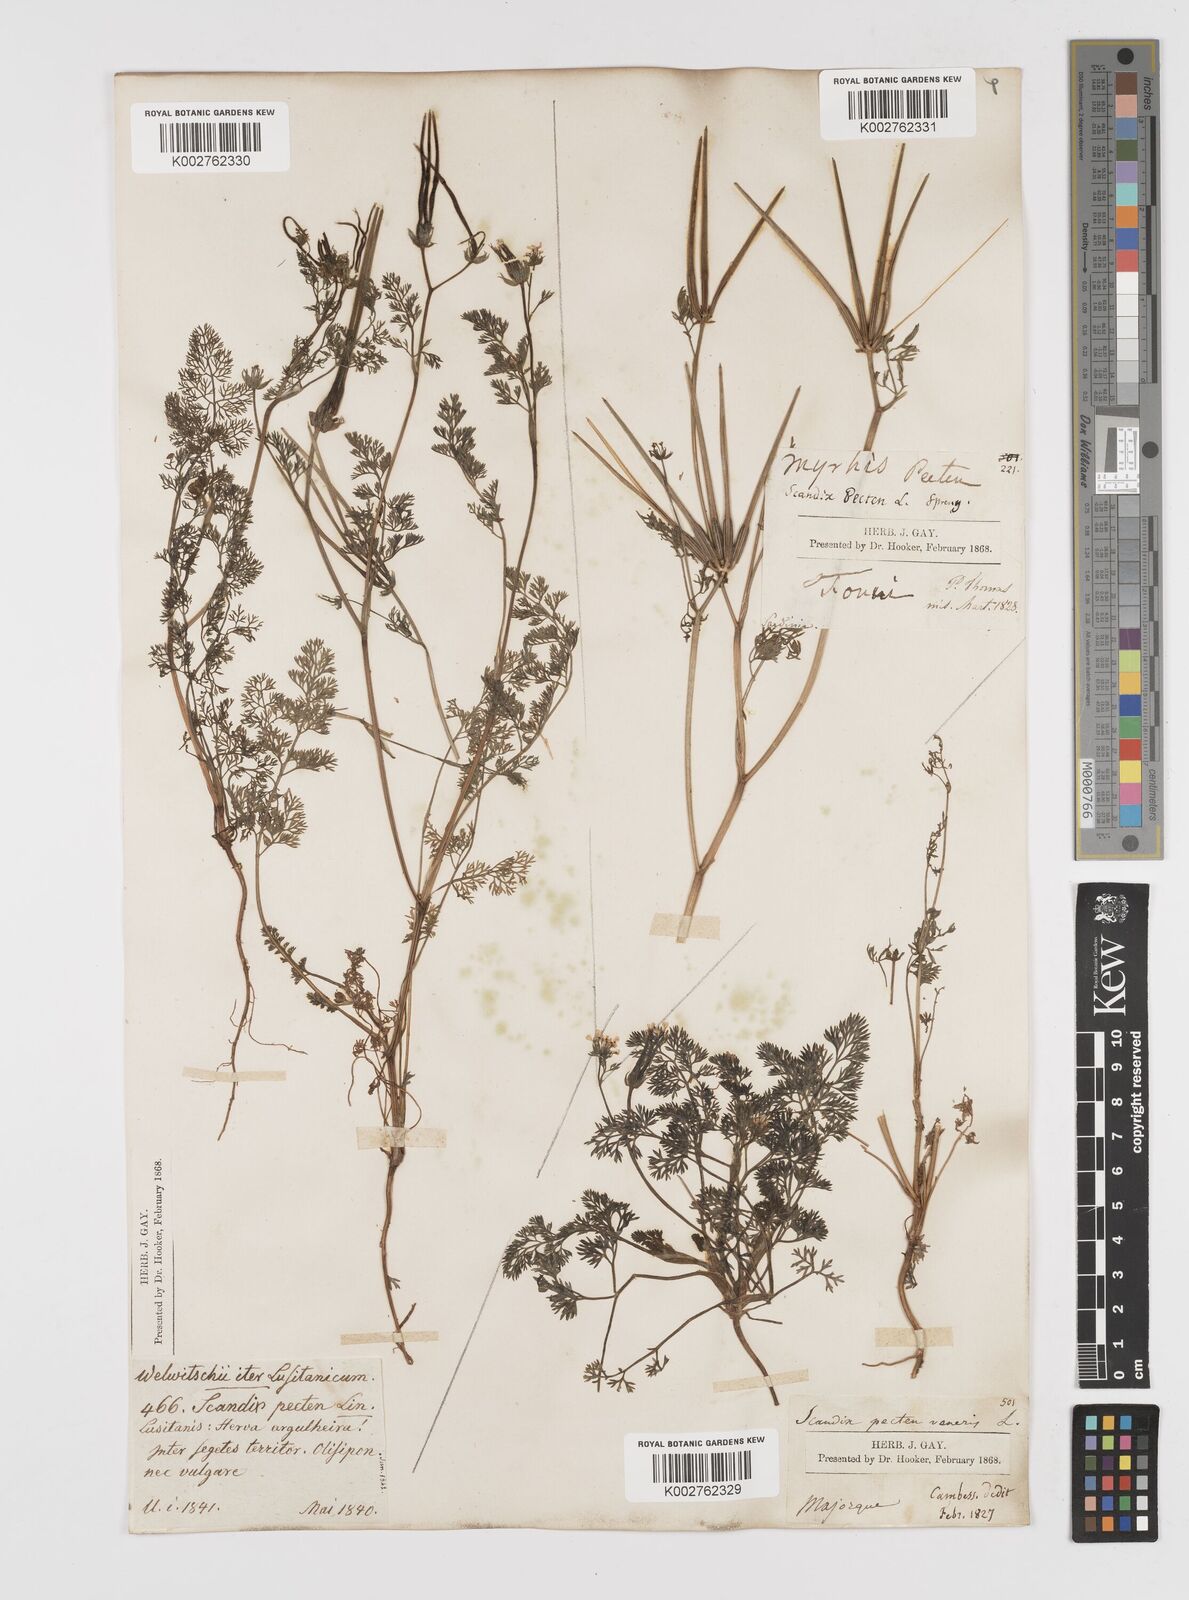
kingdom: Plantae
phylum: Tracheophyta
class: Magnoliopsida
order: Apiales
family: Apiaceae
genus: Scandix
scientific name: Scandix pecten-veneris
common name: Shepherd's-needle
